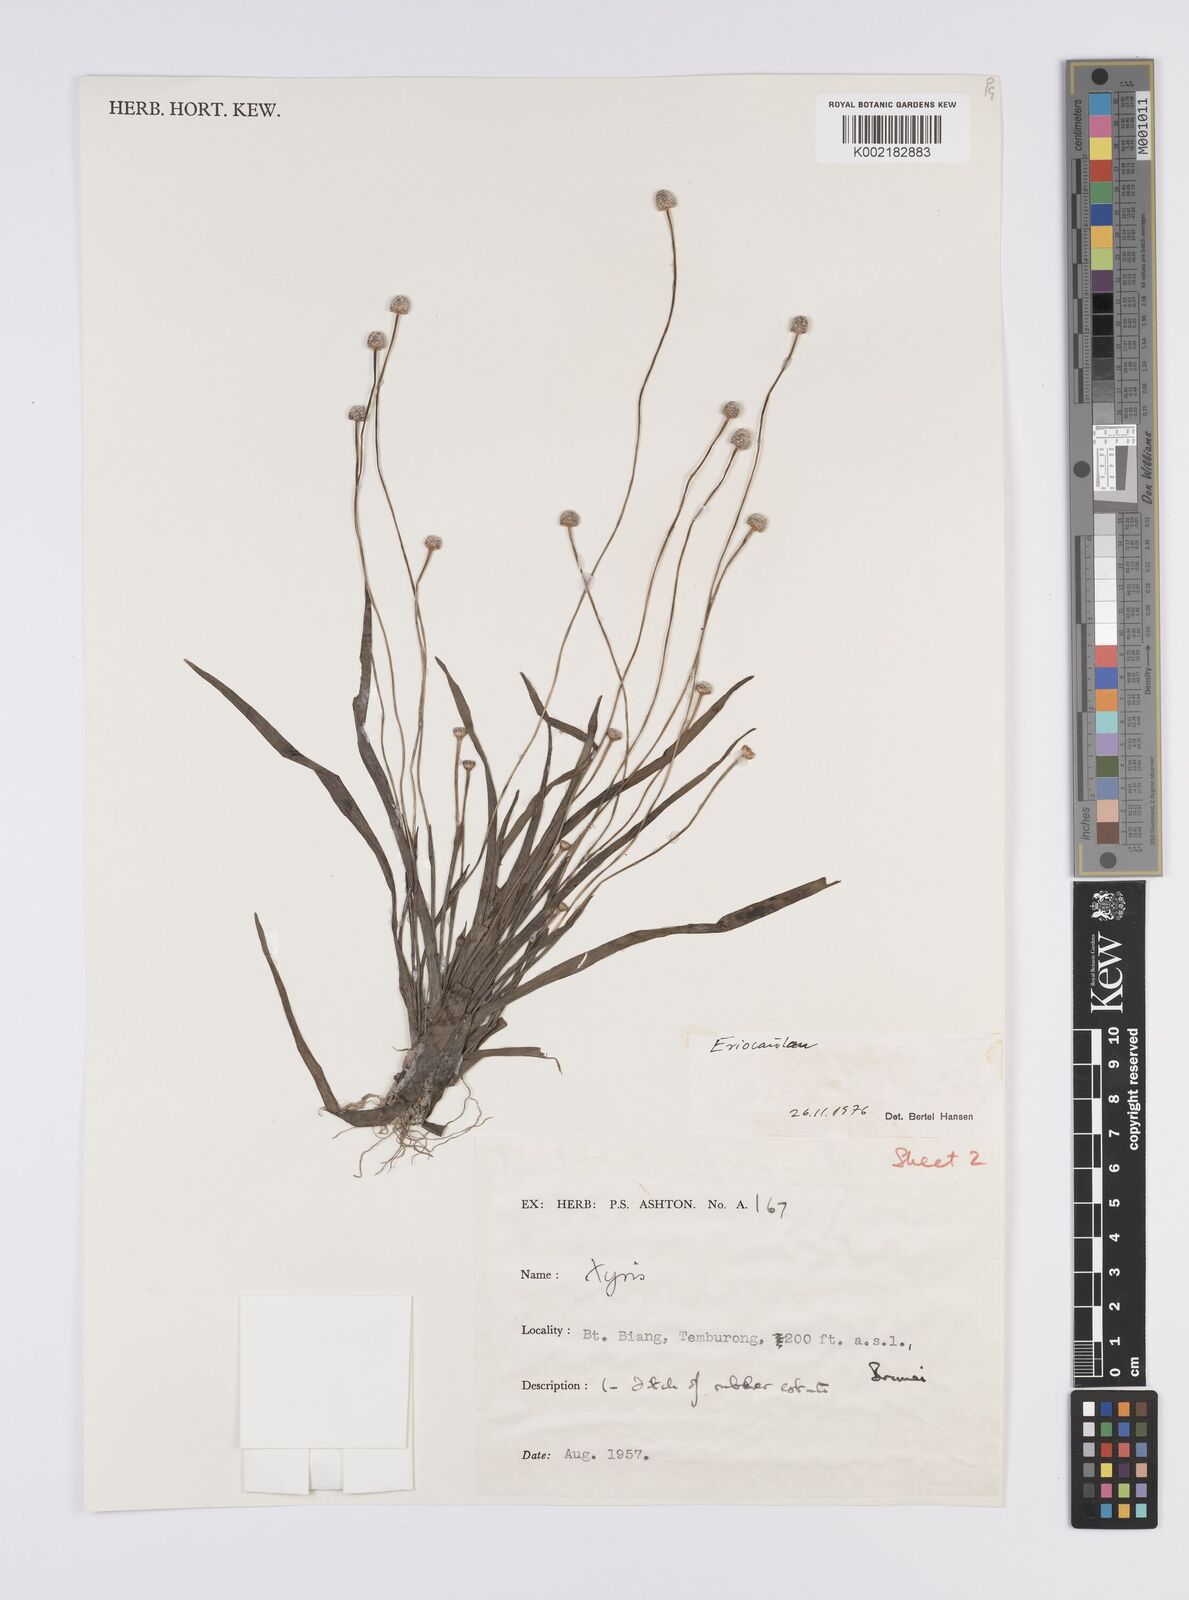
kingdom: Plantae
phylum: Tracheophyta
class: Liliopsida
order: Poales
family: Eriocaulaceae
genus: Eriocaulon
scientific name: Eriocaulon
